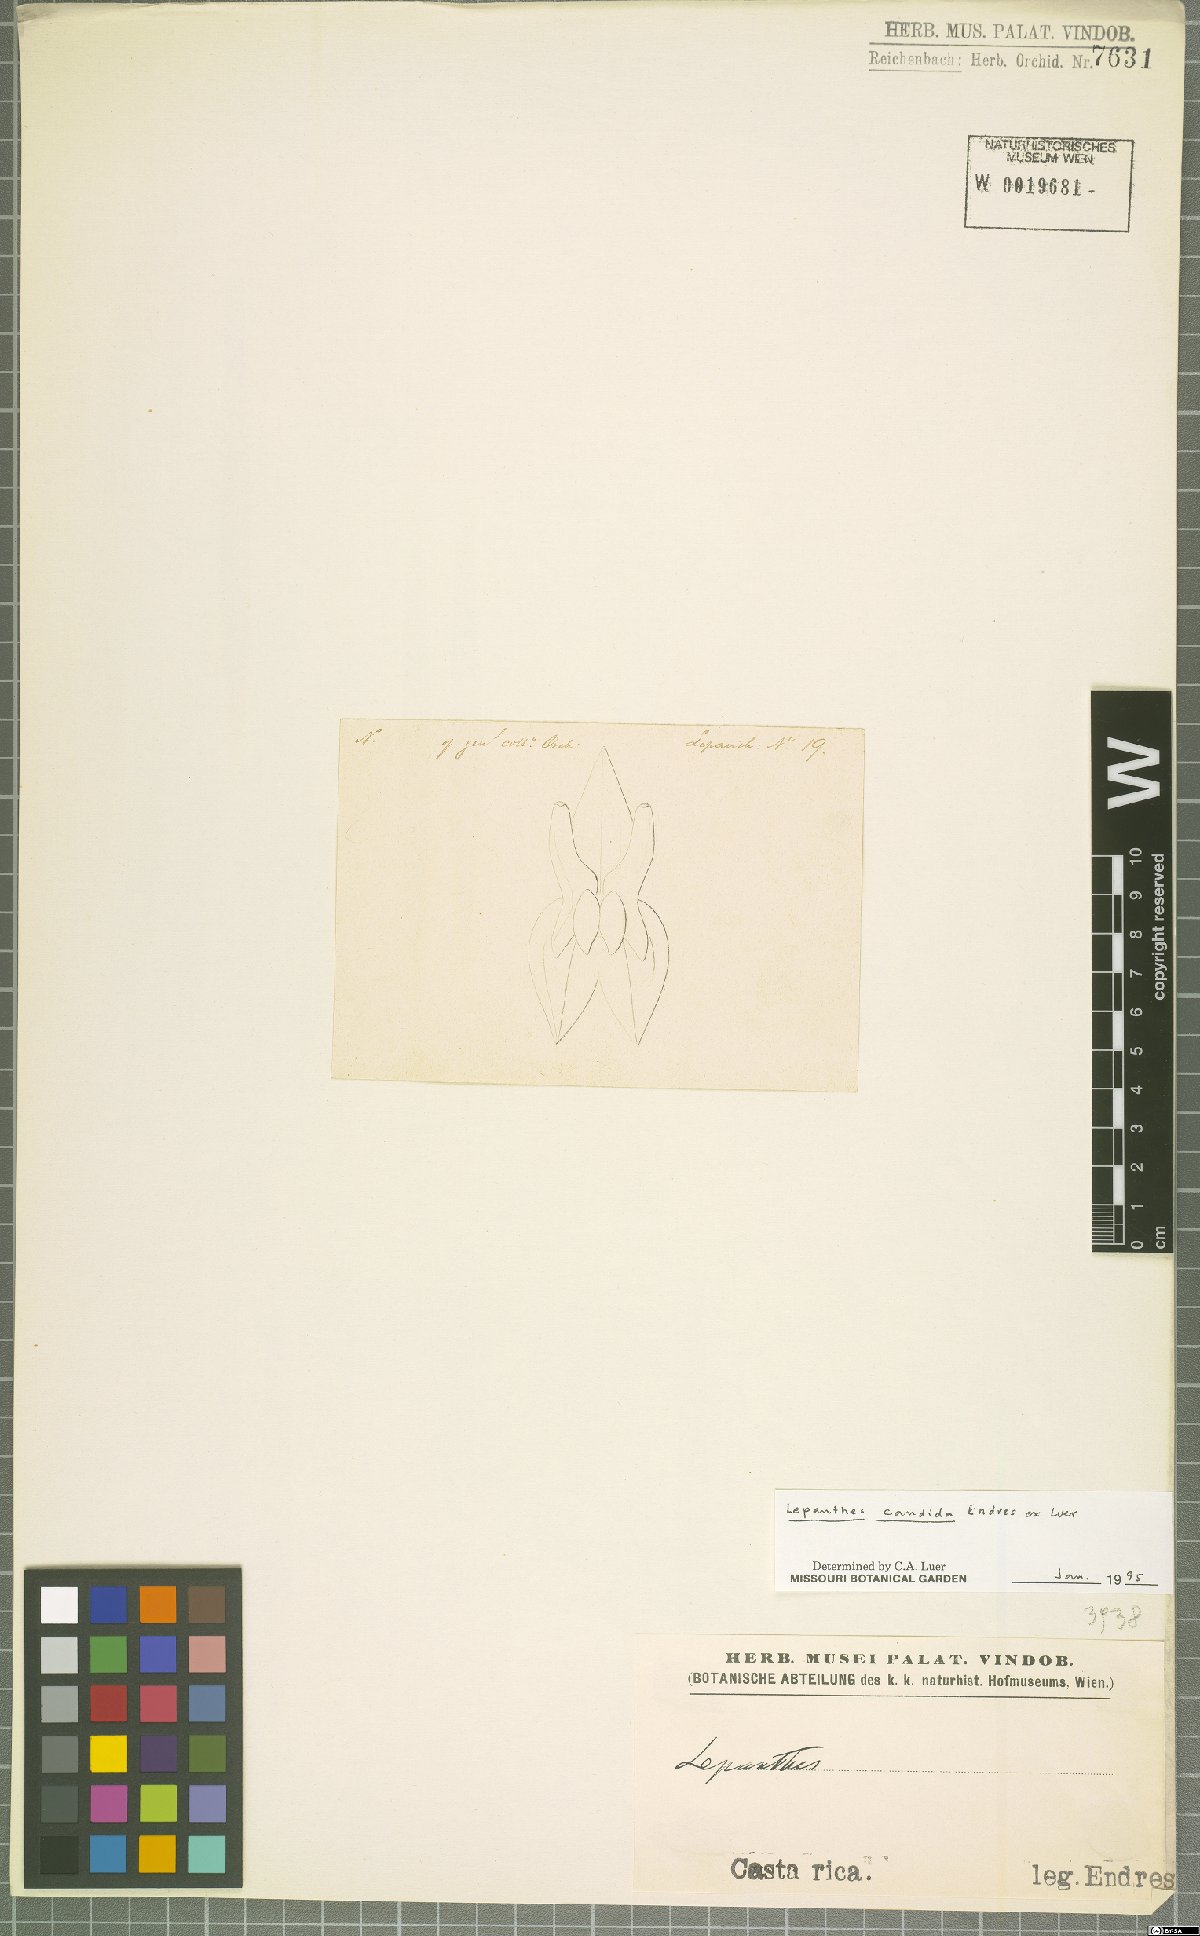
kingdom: Plantae
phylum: Tracheophyta
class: Liliopsida
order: Asparagales
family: Orchidaceae
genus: Lepanthes
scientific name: Lepanthes candida
